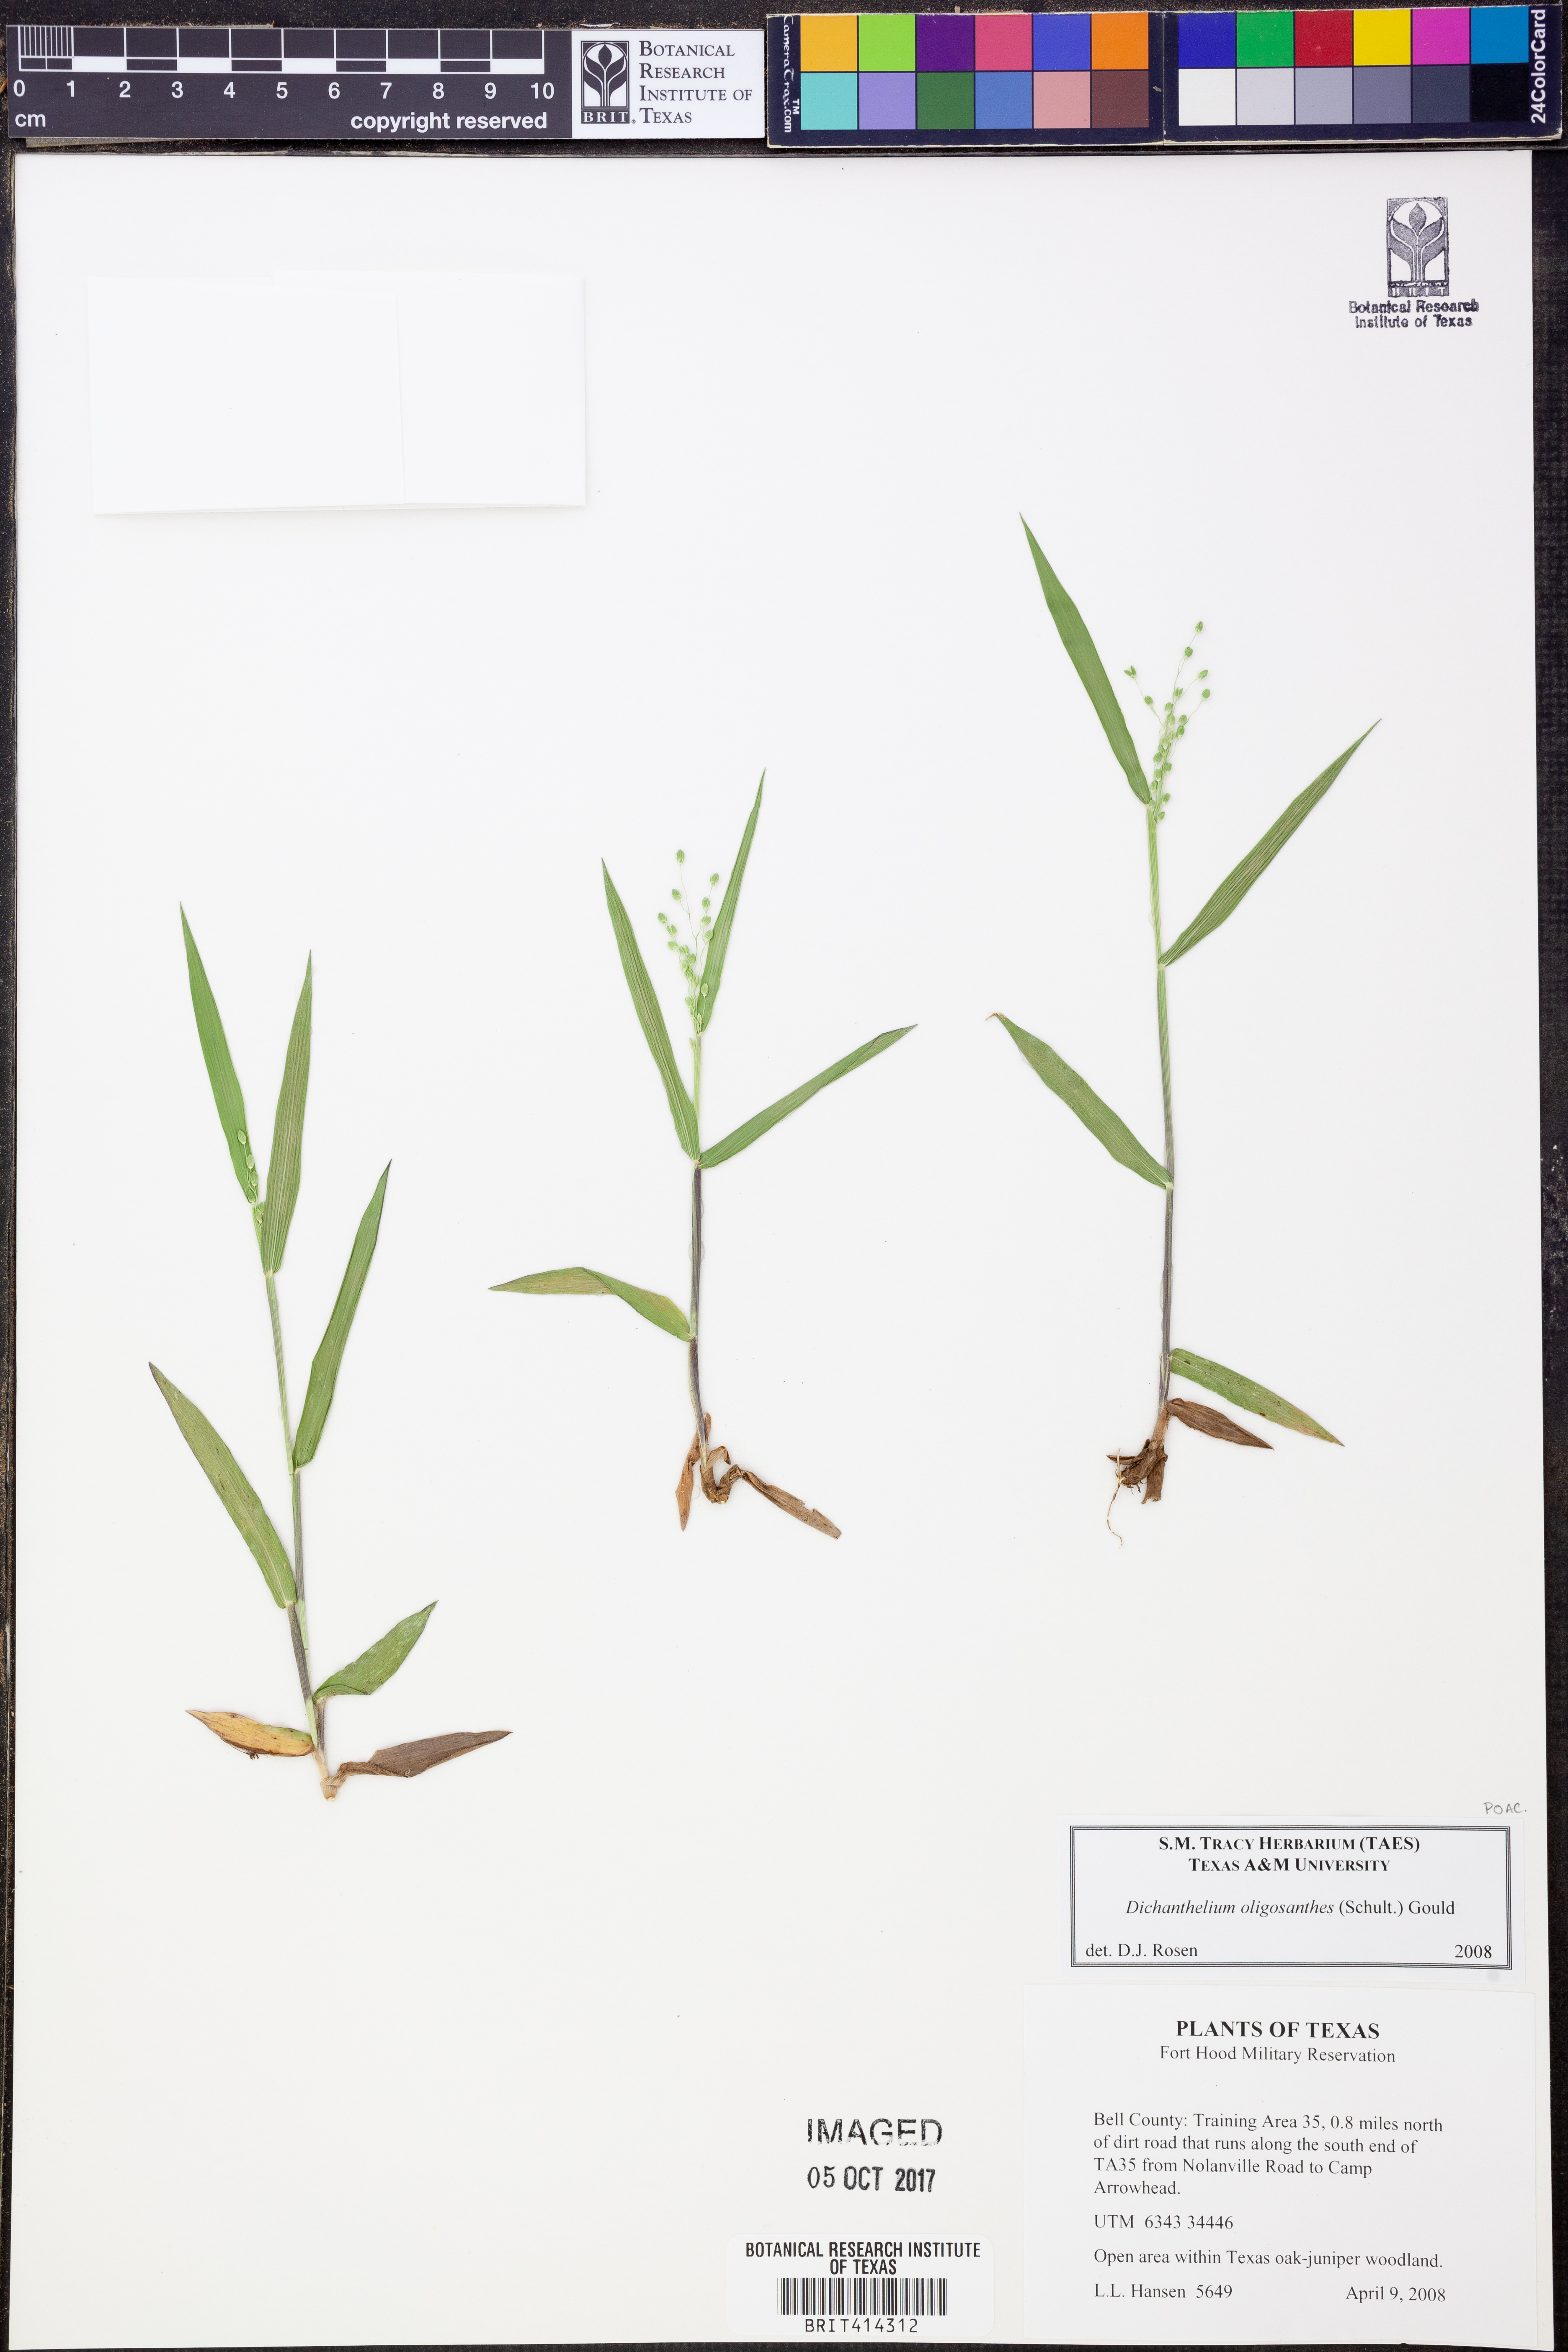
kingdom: Plantae
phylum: Tracheophyta
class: Liliopsida
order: Poales
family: Poaceae
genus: Dichanthelium
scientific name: Dichanthelium oligosanthes
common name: Few-anther obscuregrass
